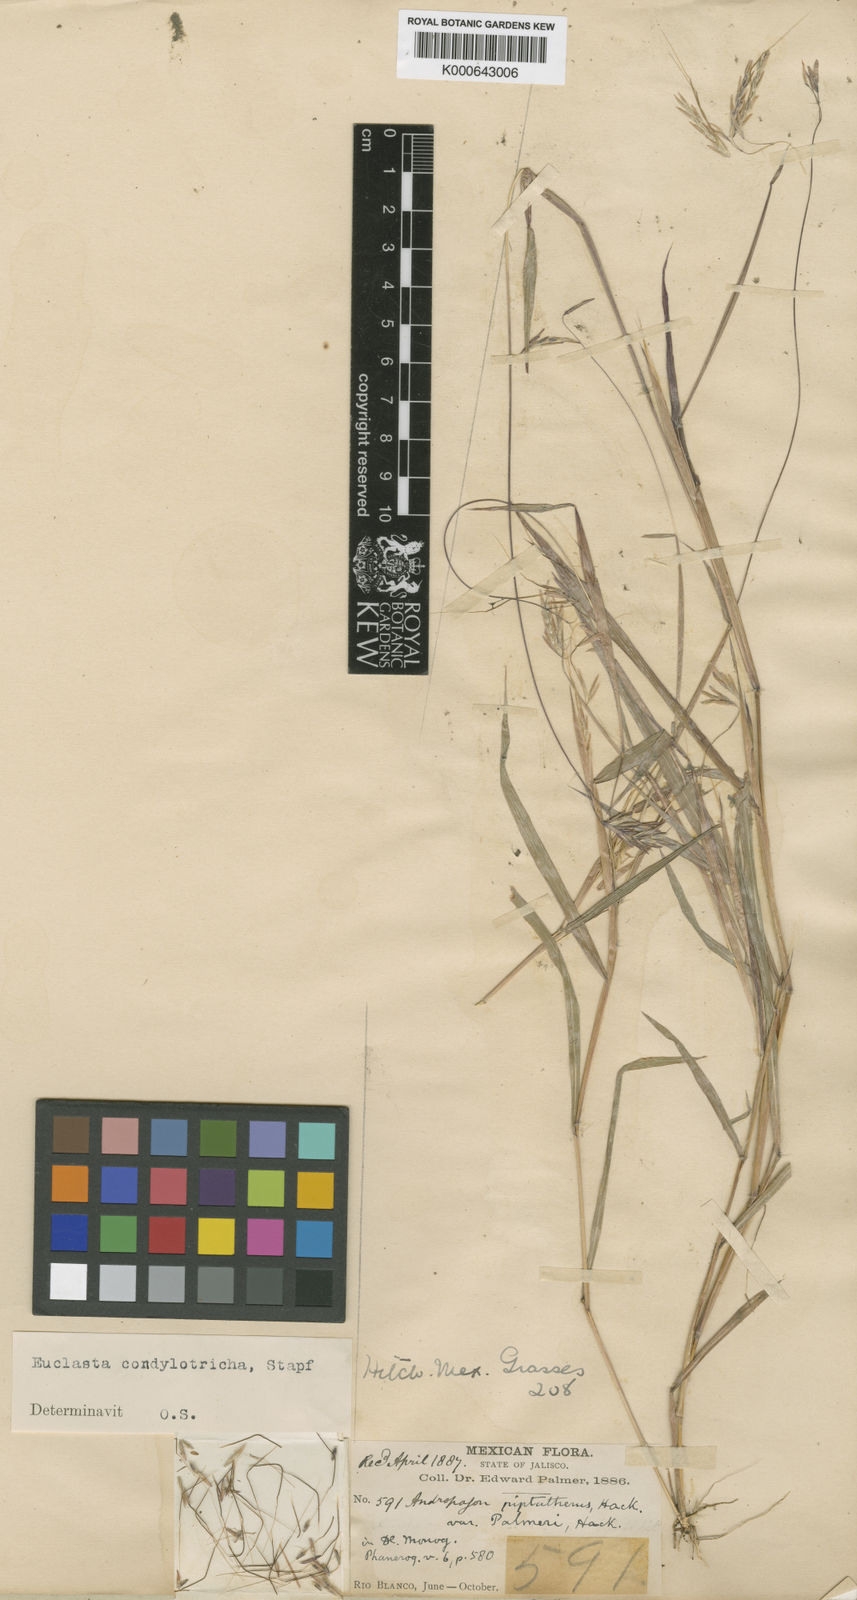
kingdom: Plantae
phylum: Tracheophyta
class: Liliopsida
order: Poales
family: Poaceae
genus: Euclasta
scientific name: Euclasta condylotricha
